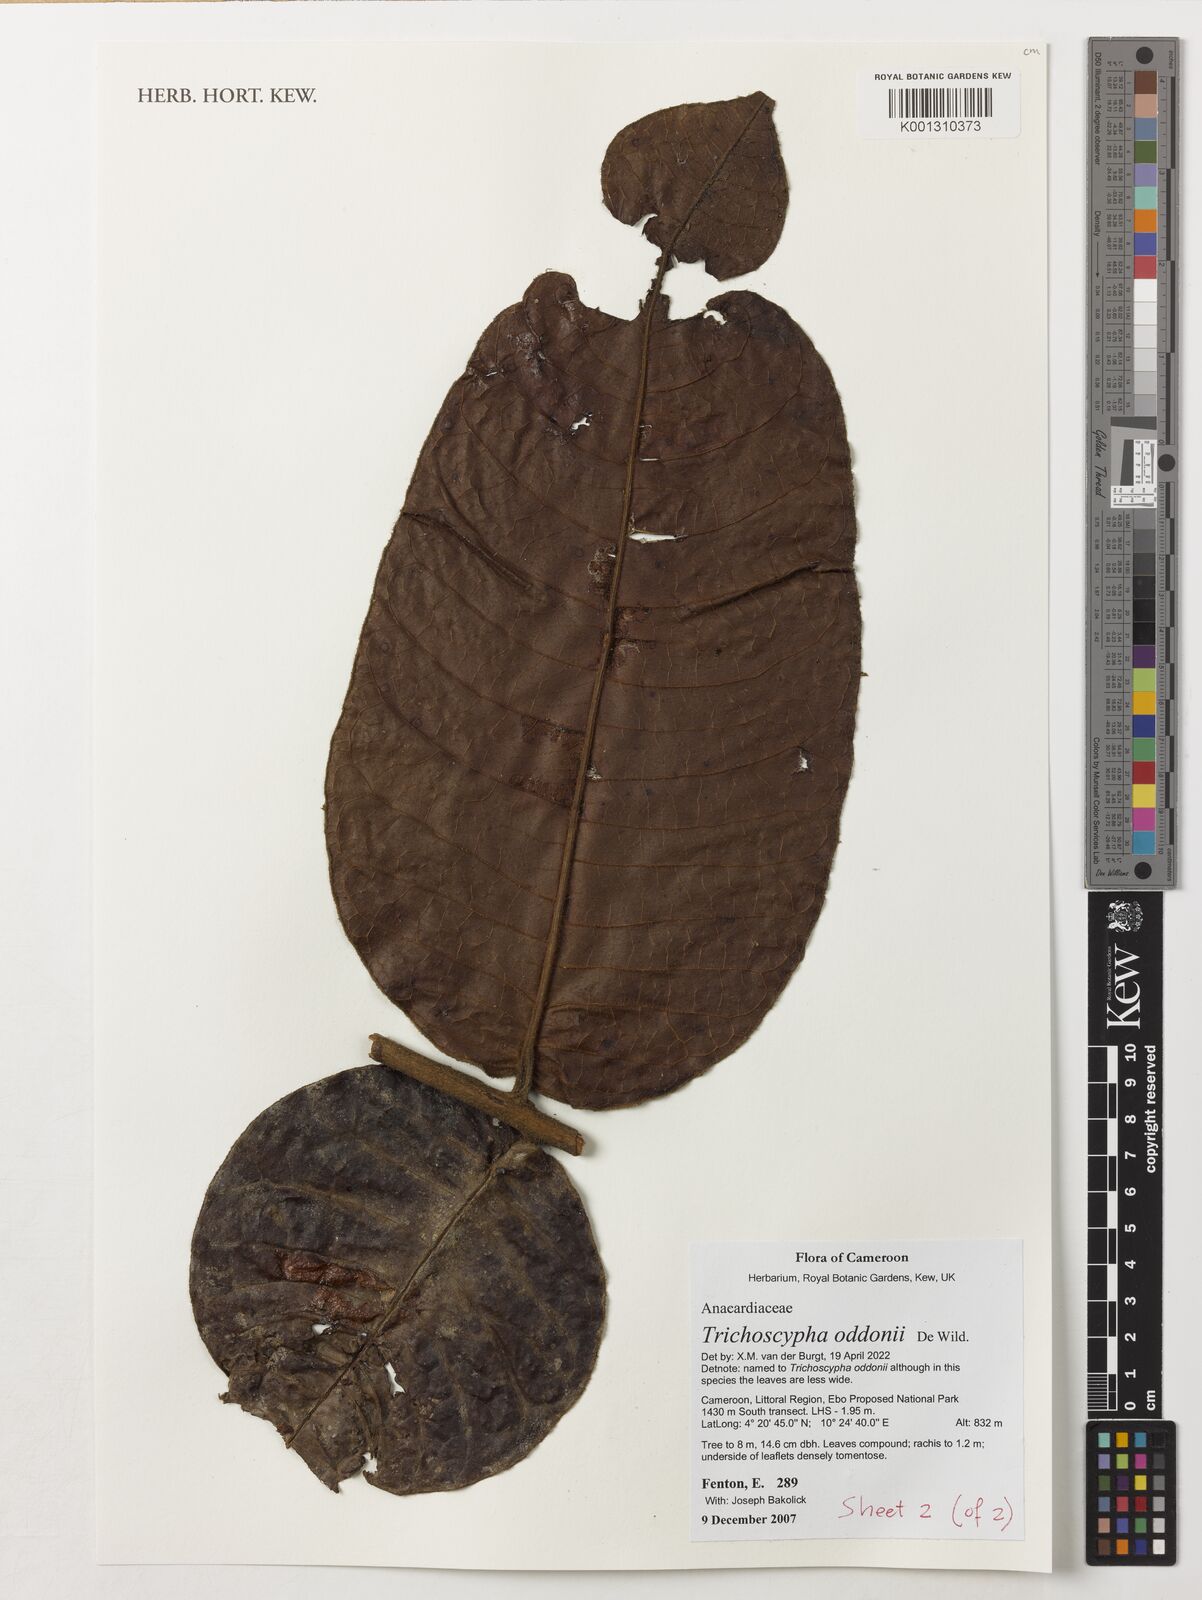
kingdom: Plantae
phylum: Tracheophyta
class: Magnoliopsida
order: Sapindales
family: Anacardiaceae
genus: Trichoscypha
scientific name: Trichoscypha oddonii
